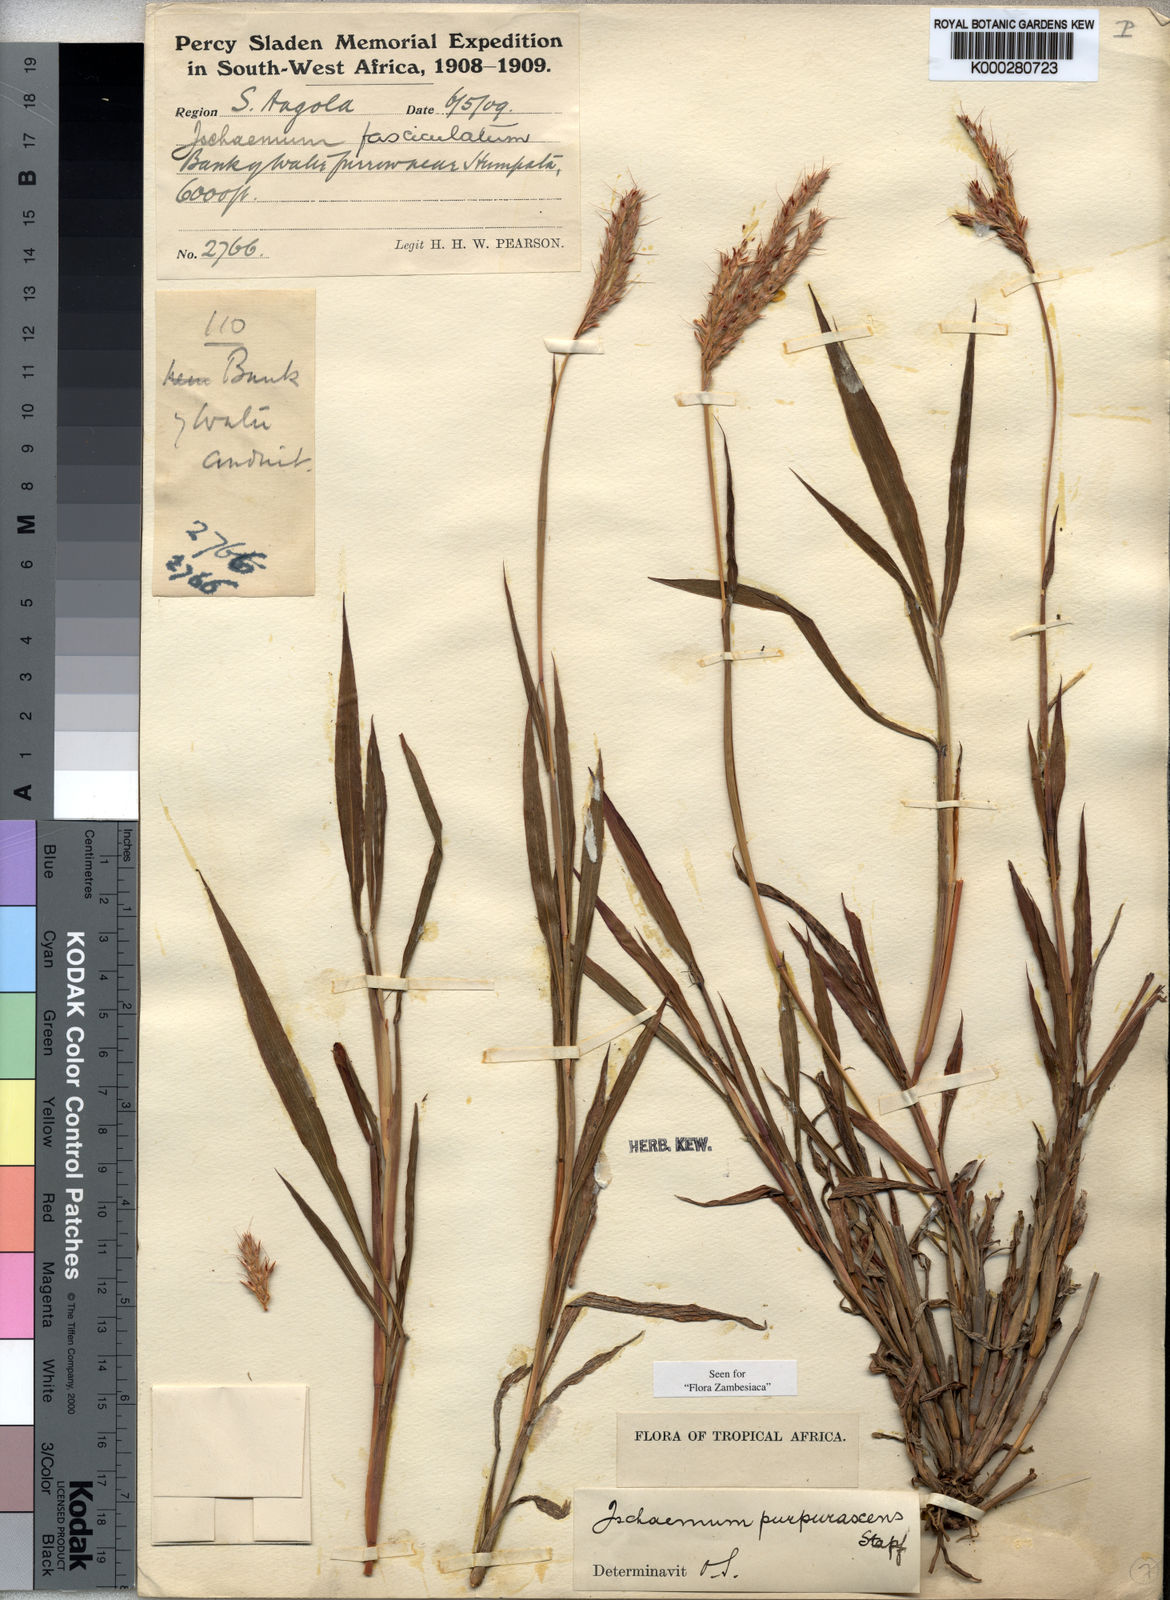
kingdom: Plantae
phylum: Tracheophyta
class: Liliopsida
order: Poales
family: Poaceae
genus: Ischaemum
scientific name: Ischaemum polystachyum
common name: Paddle grass
